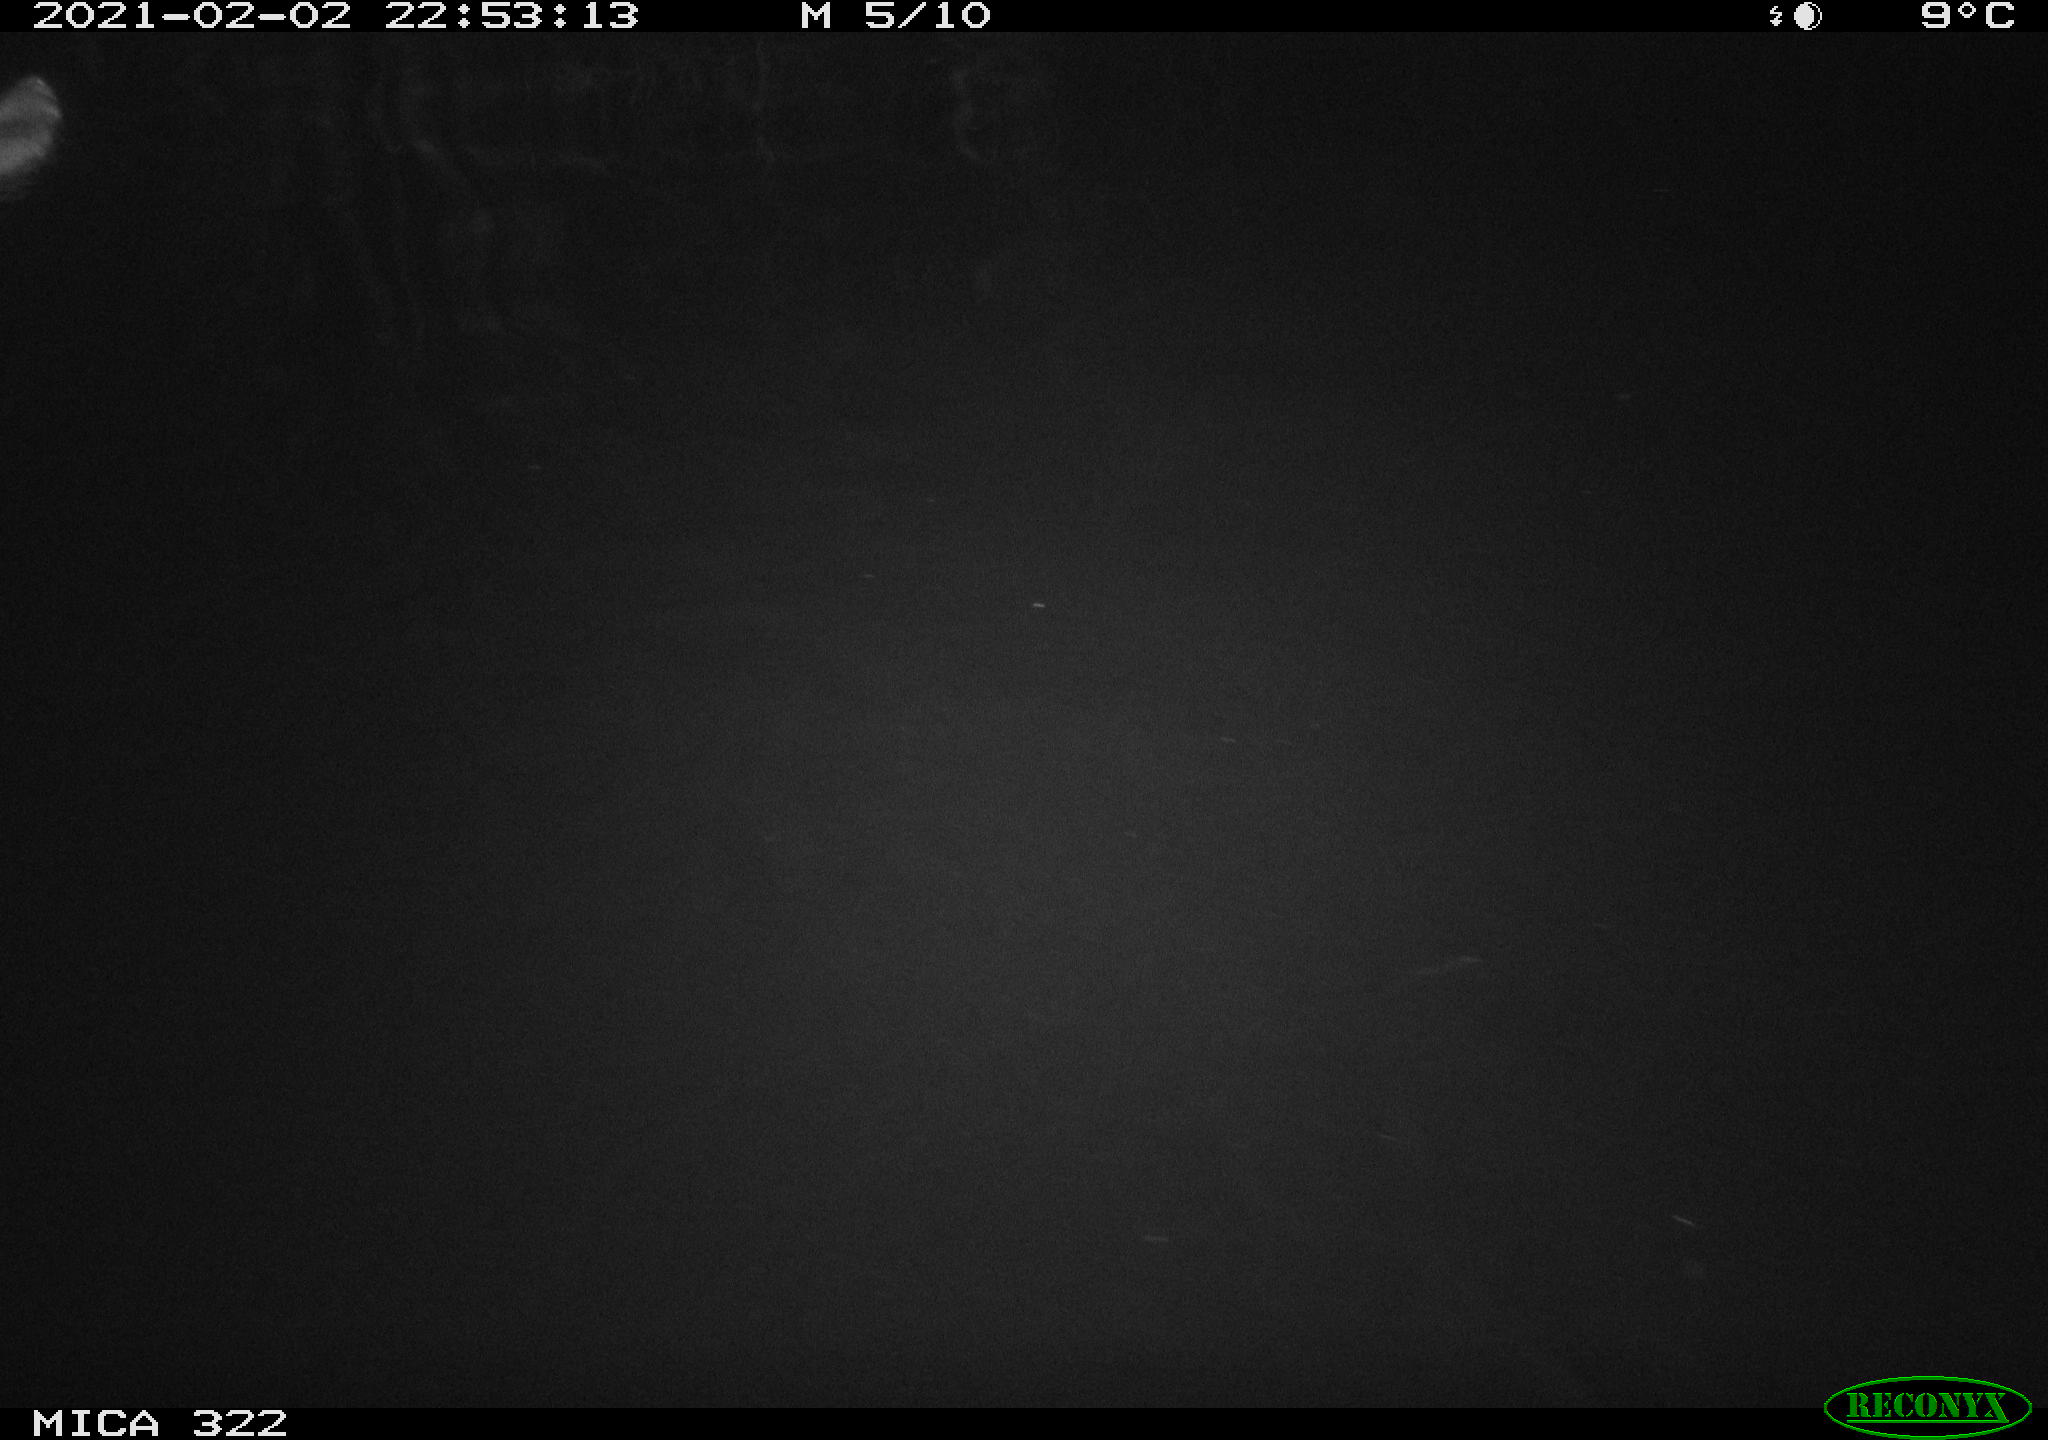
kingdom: Animalia
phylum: Chordata
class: Mammalia
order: Rodentia
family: Muridae
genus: Rattus
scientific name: Rattus norvegicus
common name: Brown rat
